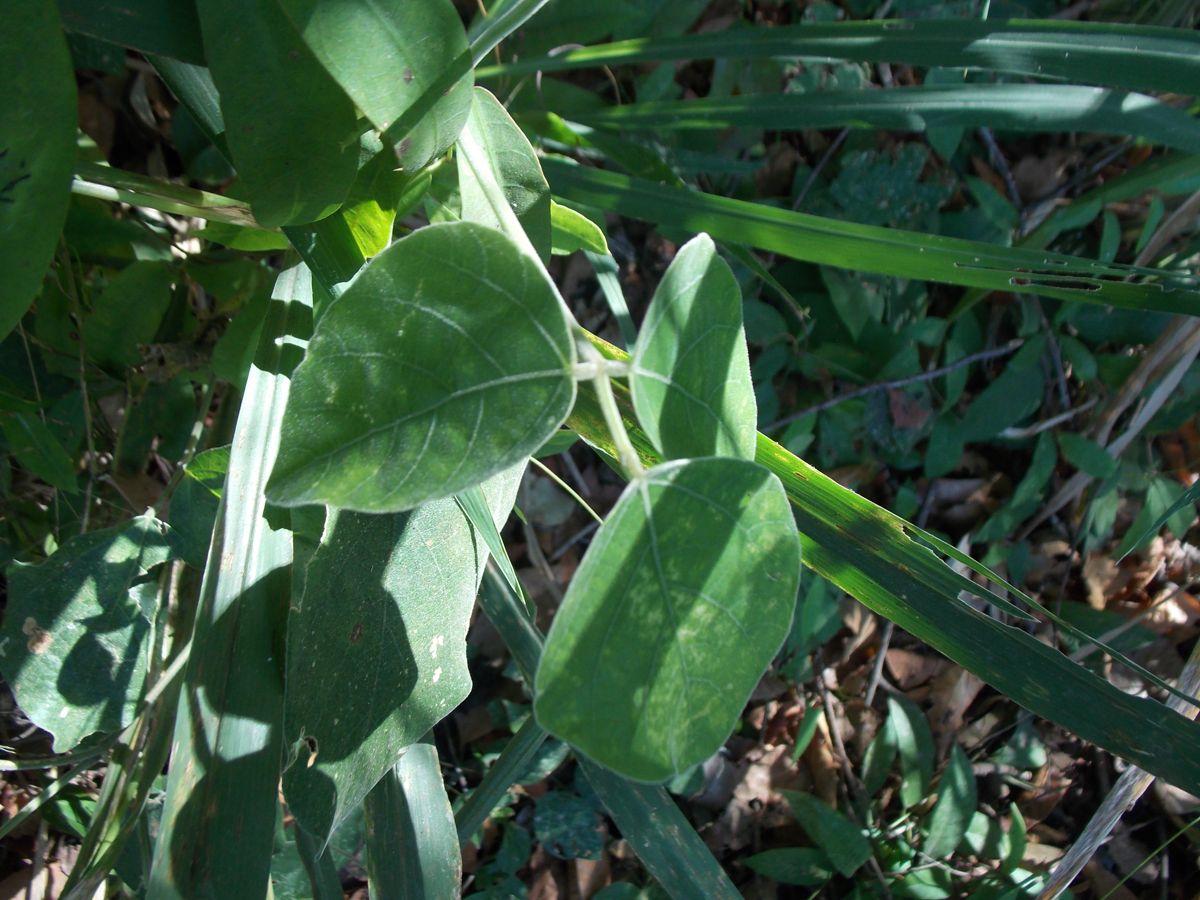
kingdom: Plantae
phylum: Tracheophyta
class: Magnoliopsida
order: Fabales
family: Fabaceae
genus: Calopogonium
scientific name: Calopogonium caeruleum
